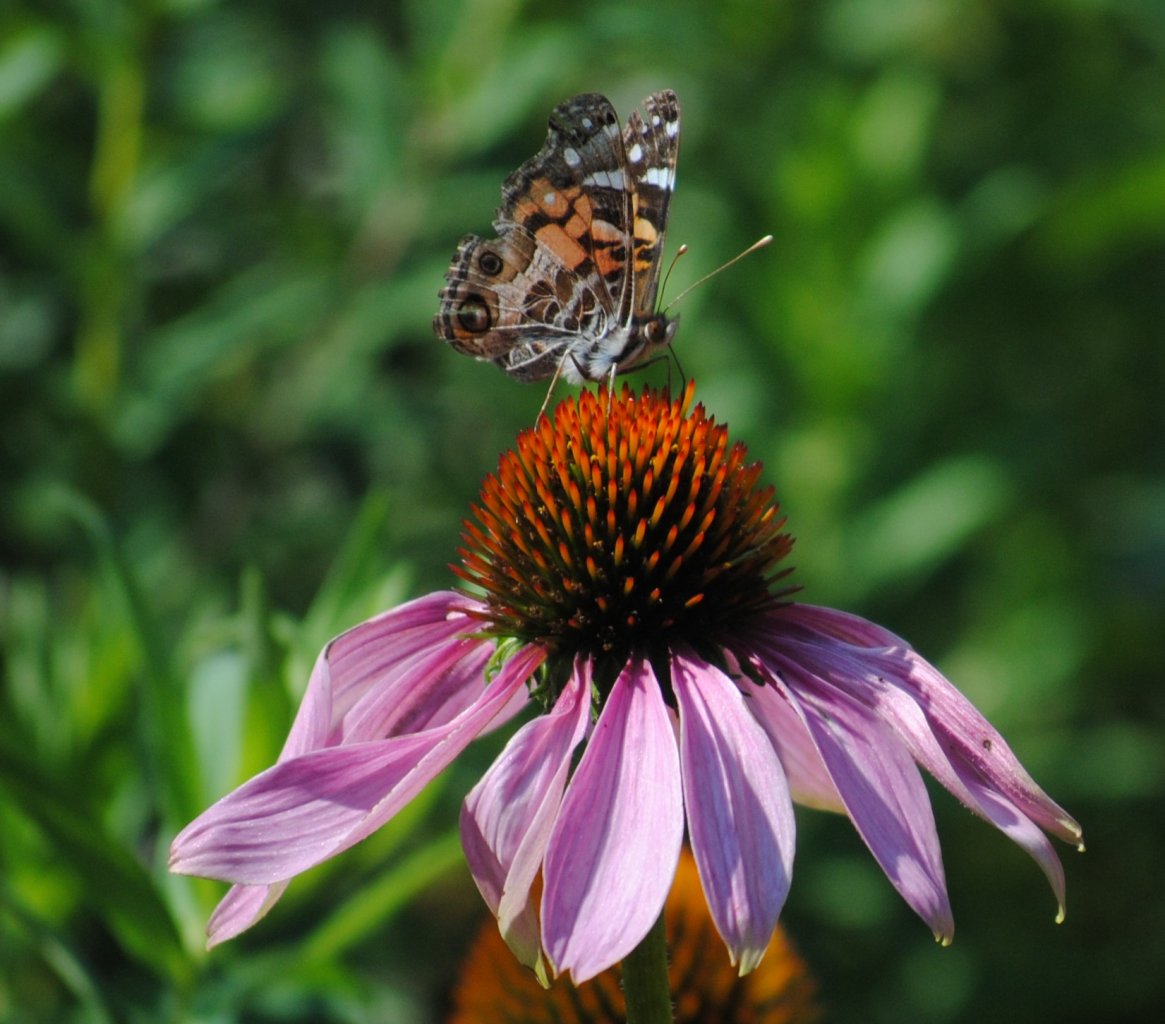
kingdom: Animalia
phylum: Arthropoda
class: Insecta
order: Lepidoptera
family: Nymphalidae
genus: Vanessa
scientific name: Vanessa virginiensis
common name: American Lady
